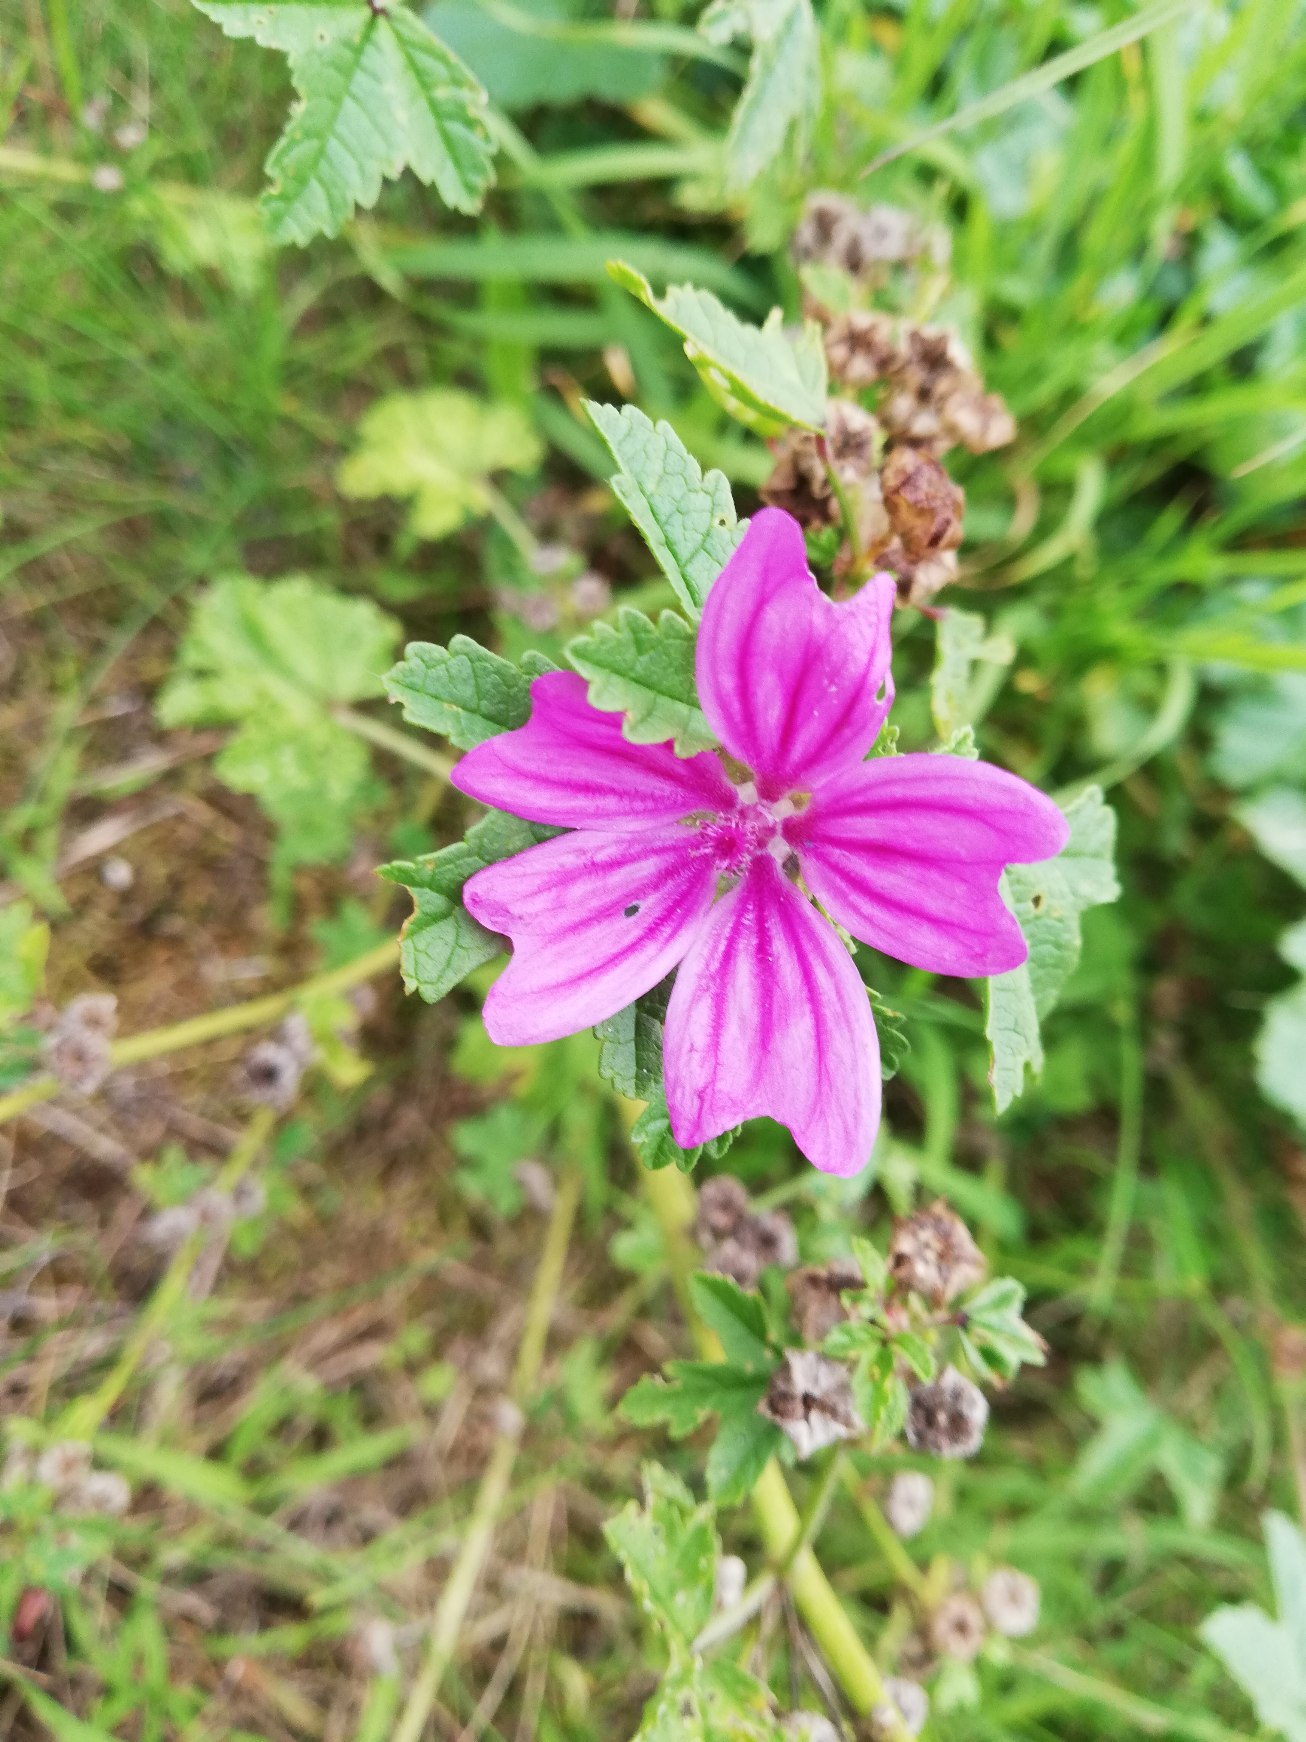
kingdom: Plantae
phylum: Tracheophyta
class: Magnoliopsida
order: Malvales
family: Malvaceae
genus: Malva
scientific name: Malva sylvestris
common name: Almindelig katost
